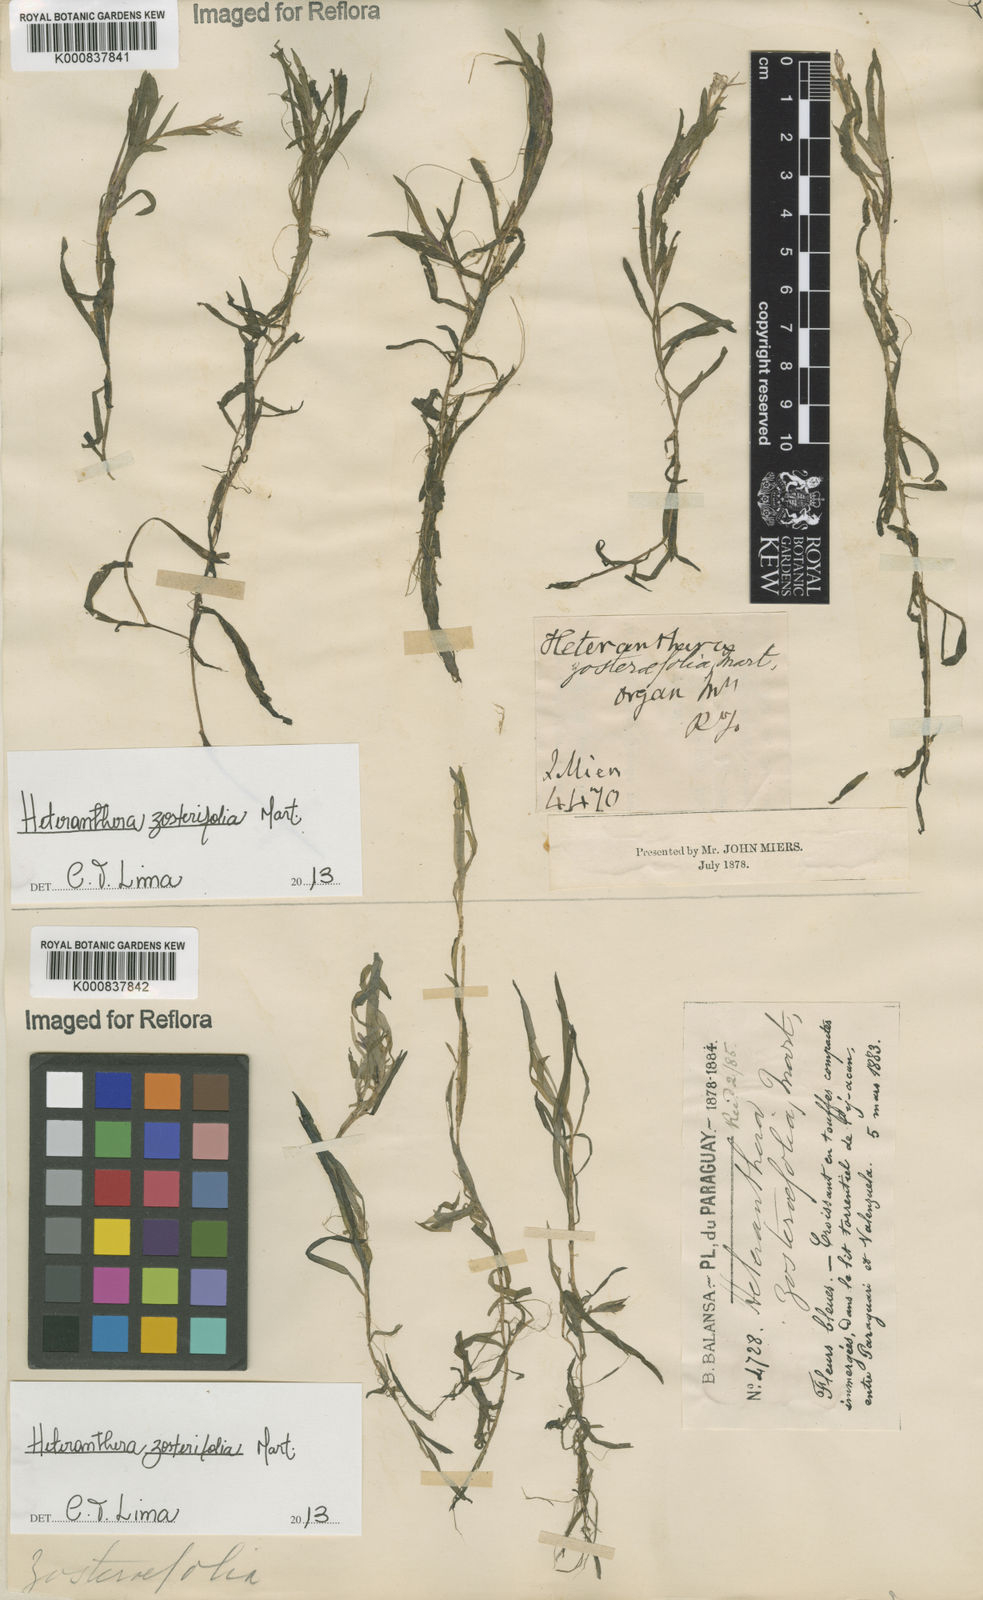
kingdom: Plantae
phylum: Tracheophyta
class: Liliopsida
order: Commelinales
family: Pontederiaceae
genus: Heteranthera
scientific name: Heteranthera zosterifolia
